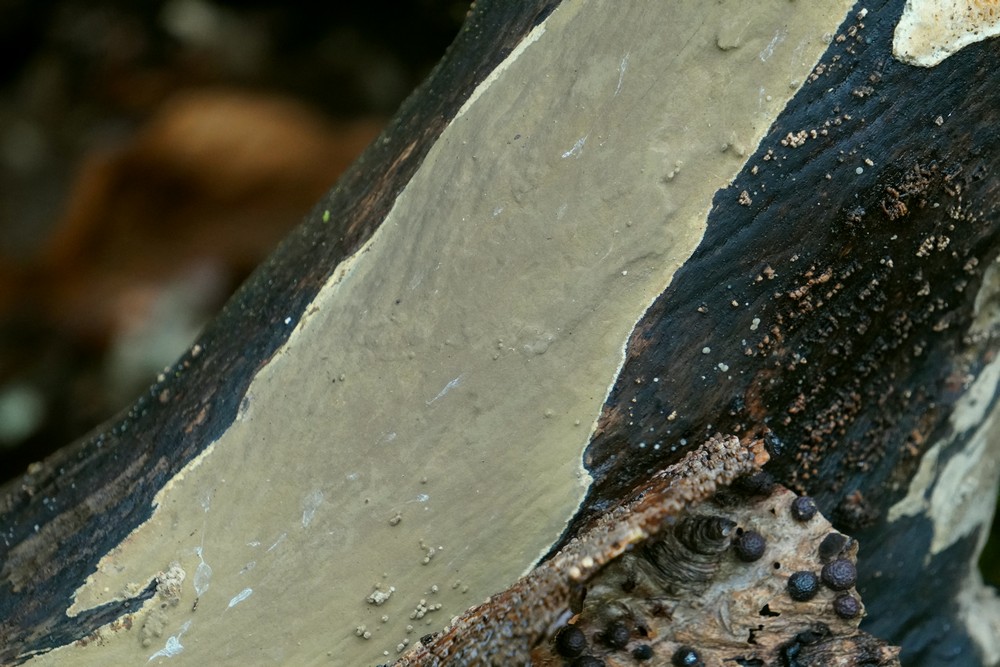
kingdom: Fungi
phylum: Ascomycota
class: Sordariomycetes
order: Xylariales
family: Hypoxylaceae
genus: Nodulisporium
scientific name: Nodulisporium
